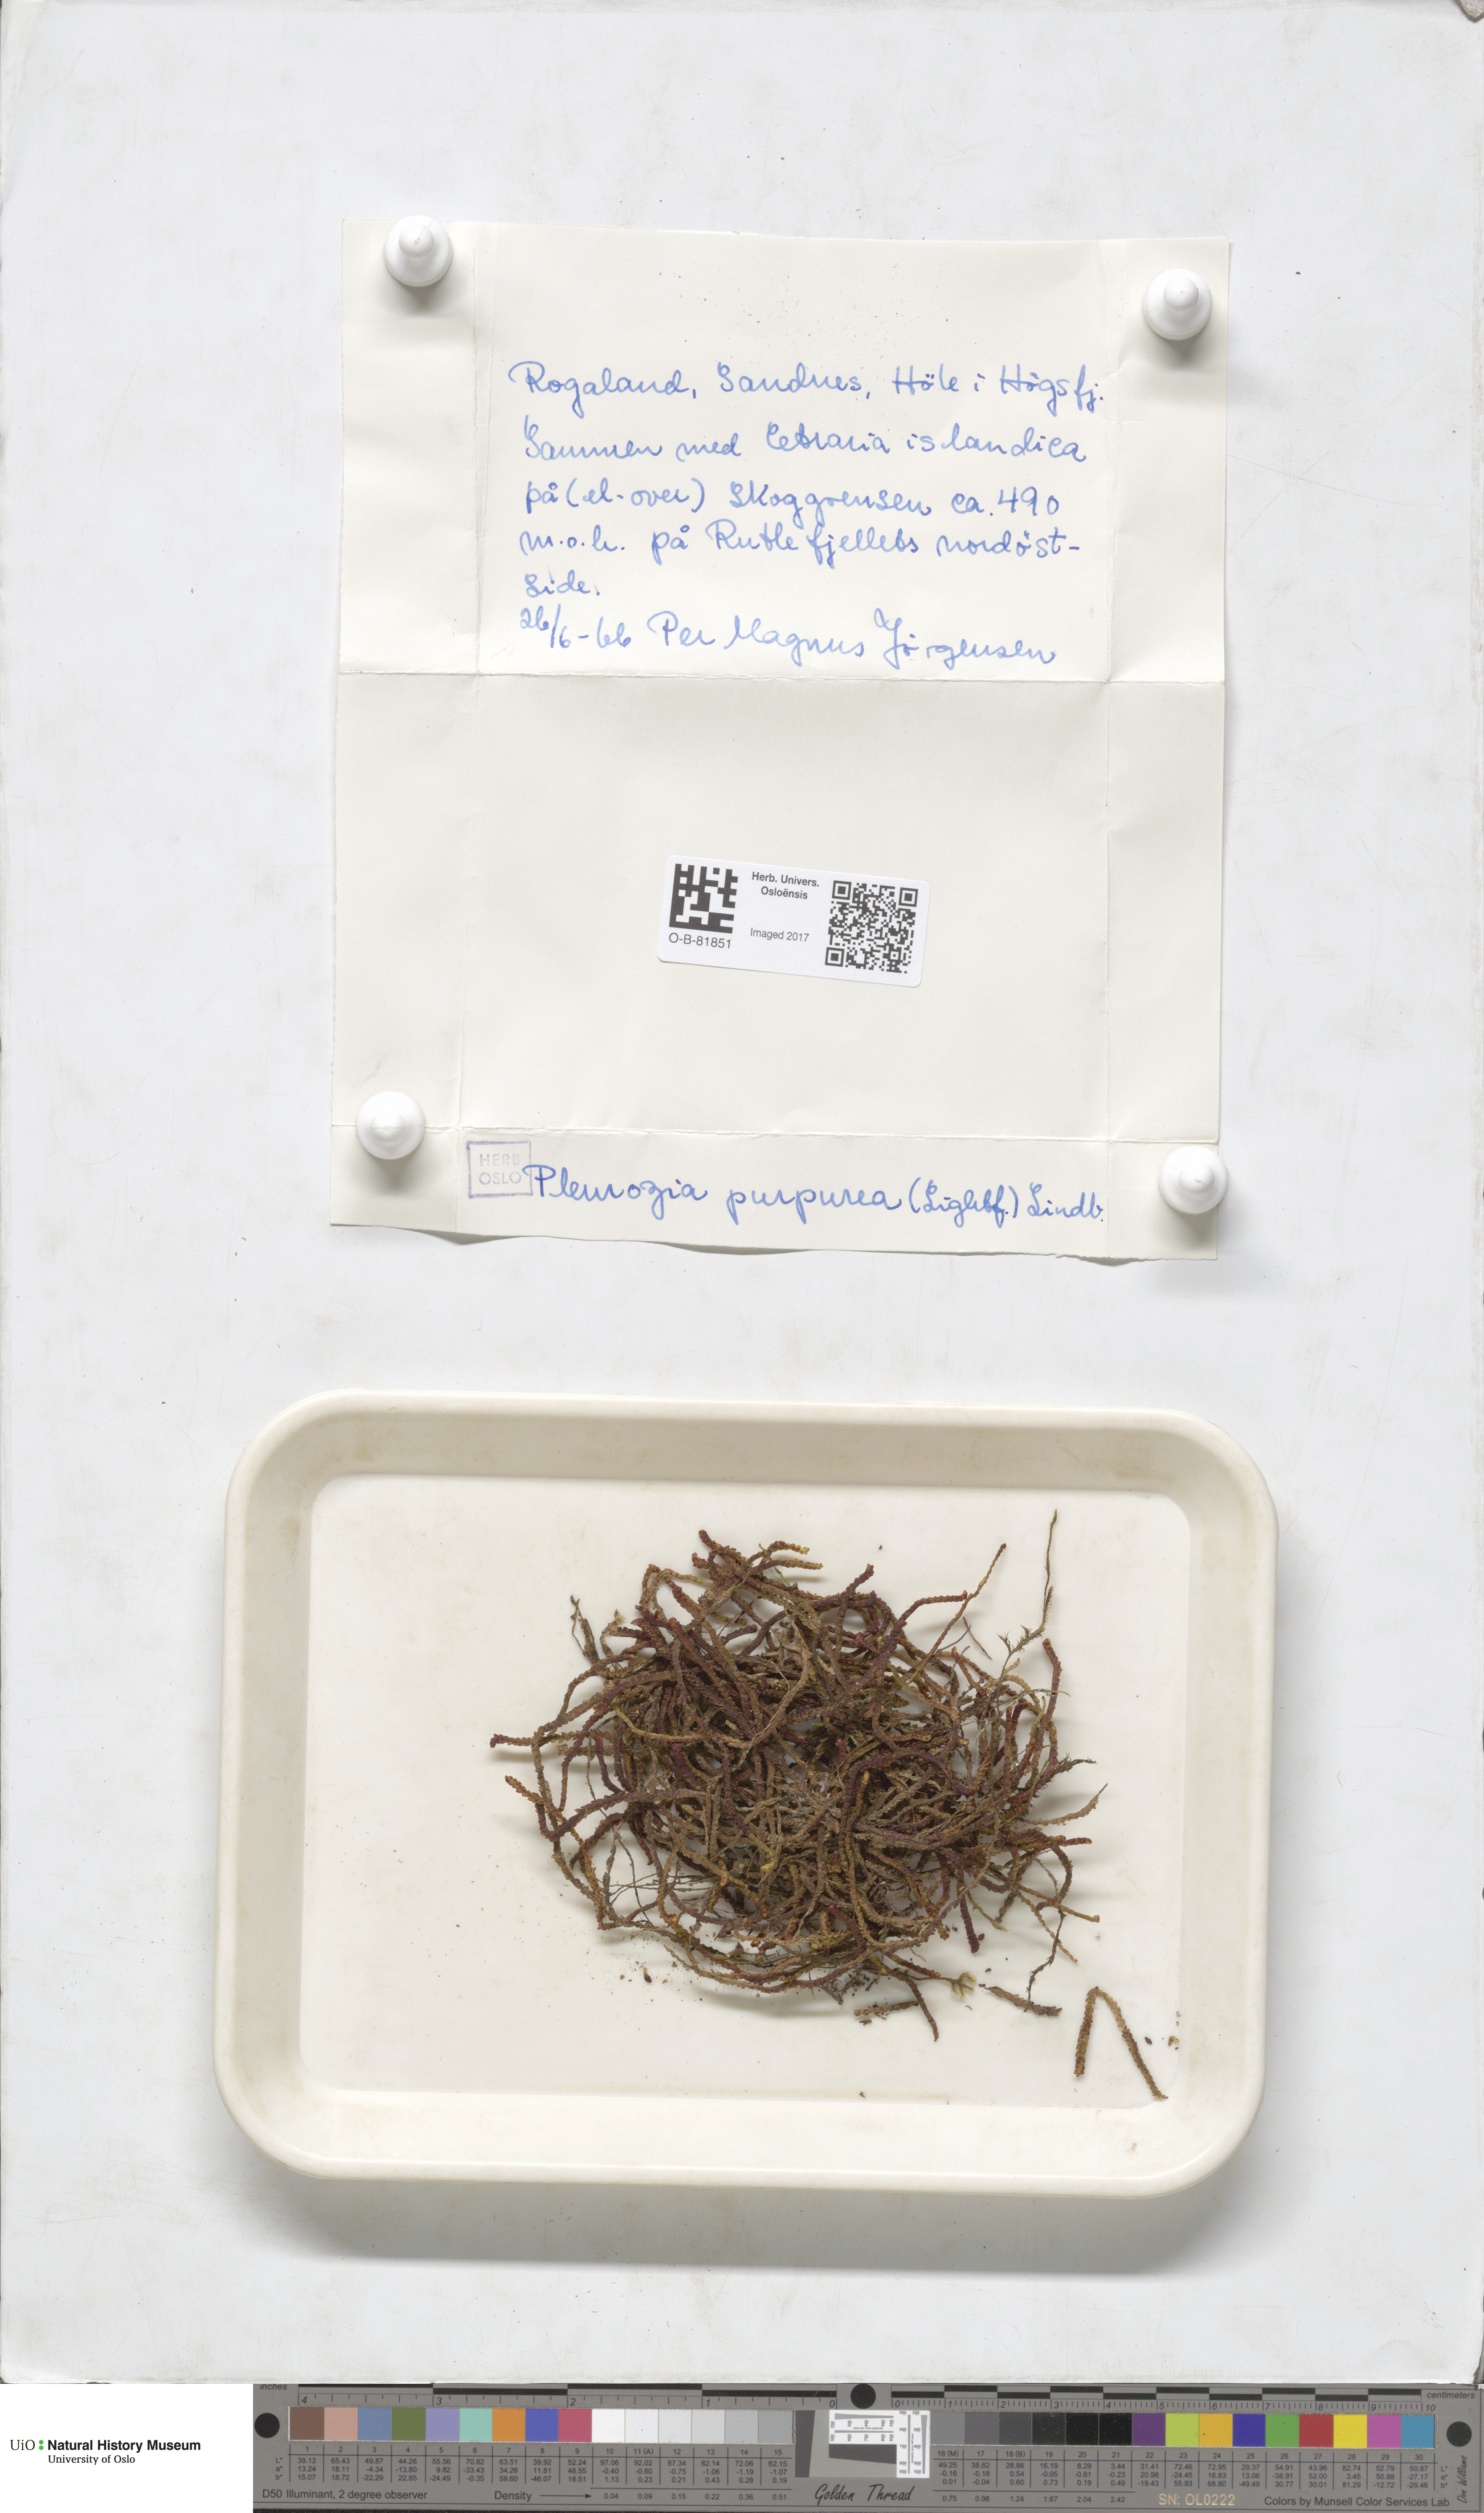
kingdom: Plantae
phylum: Marchantiophyta
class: Jungermanniopsida
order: Pleuroziales
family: Pleuroziaceae
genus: Pleurozia
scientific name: Pleurozia purpurea
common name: Purple spoonwort
